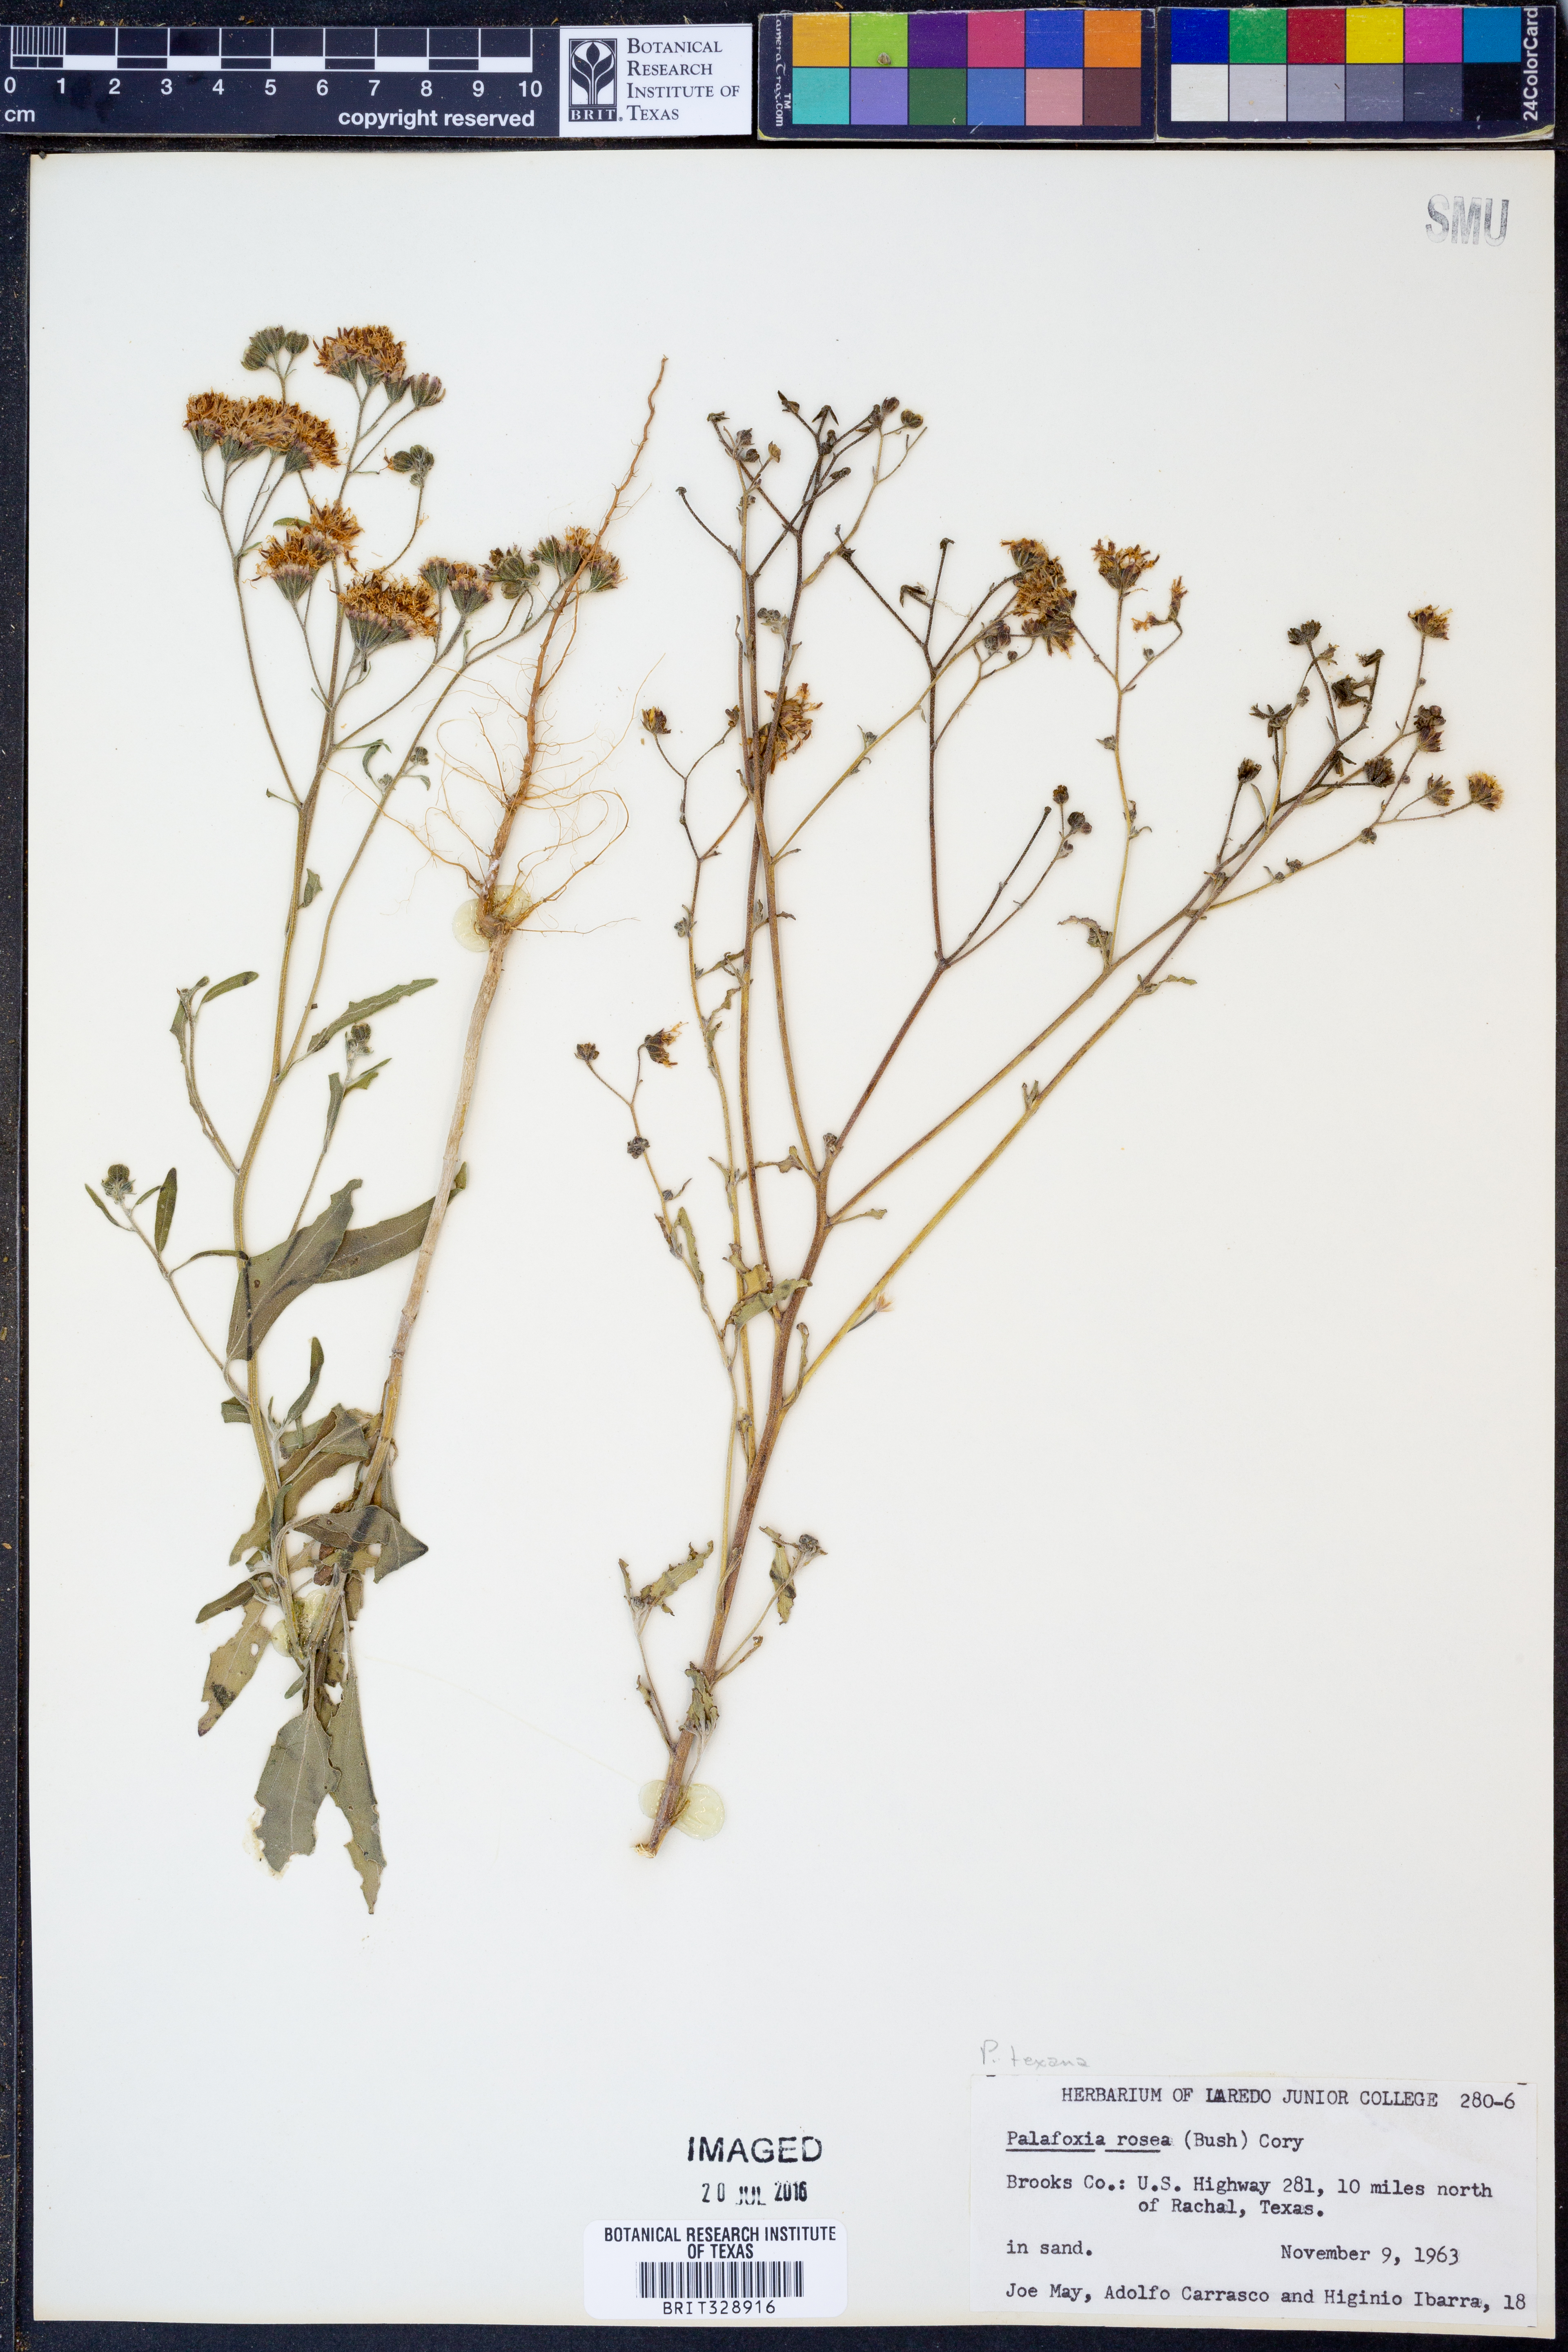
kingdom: Plantae
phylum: Tracheophyta
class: Magnoliopsida
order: Asterales
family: Asteraceae
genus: Palafoxia
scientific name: Palafoxia rosea
